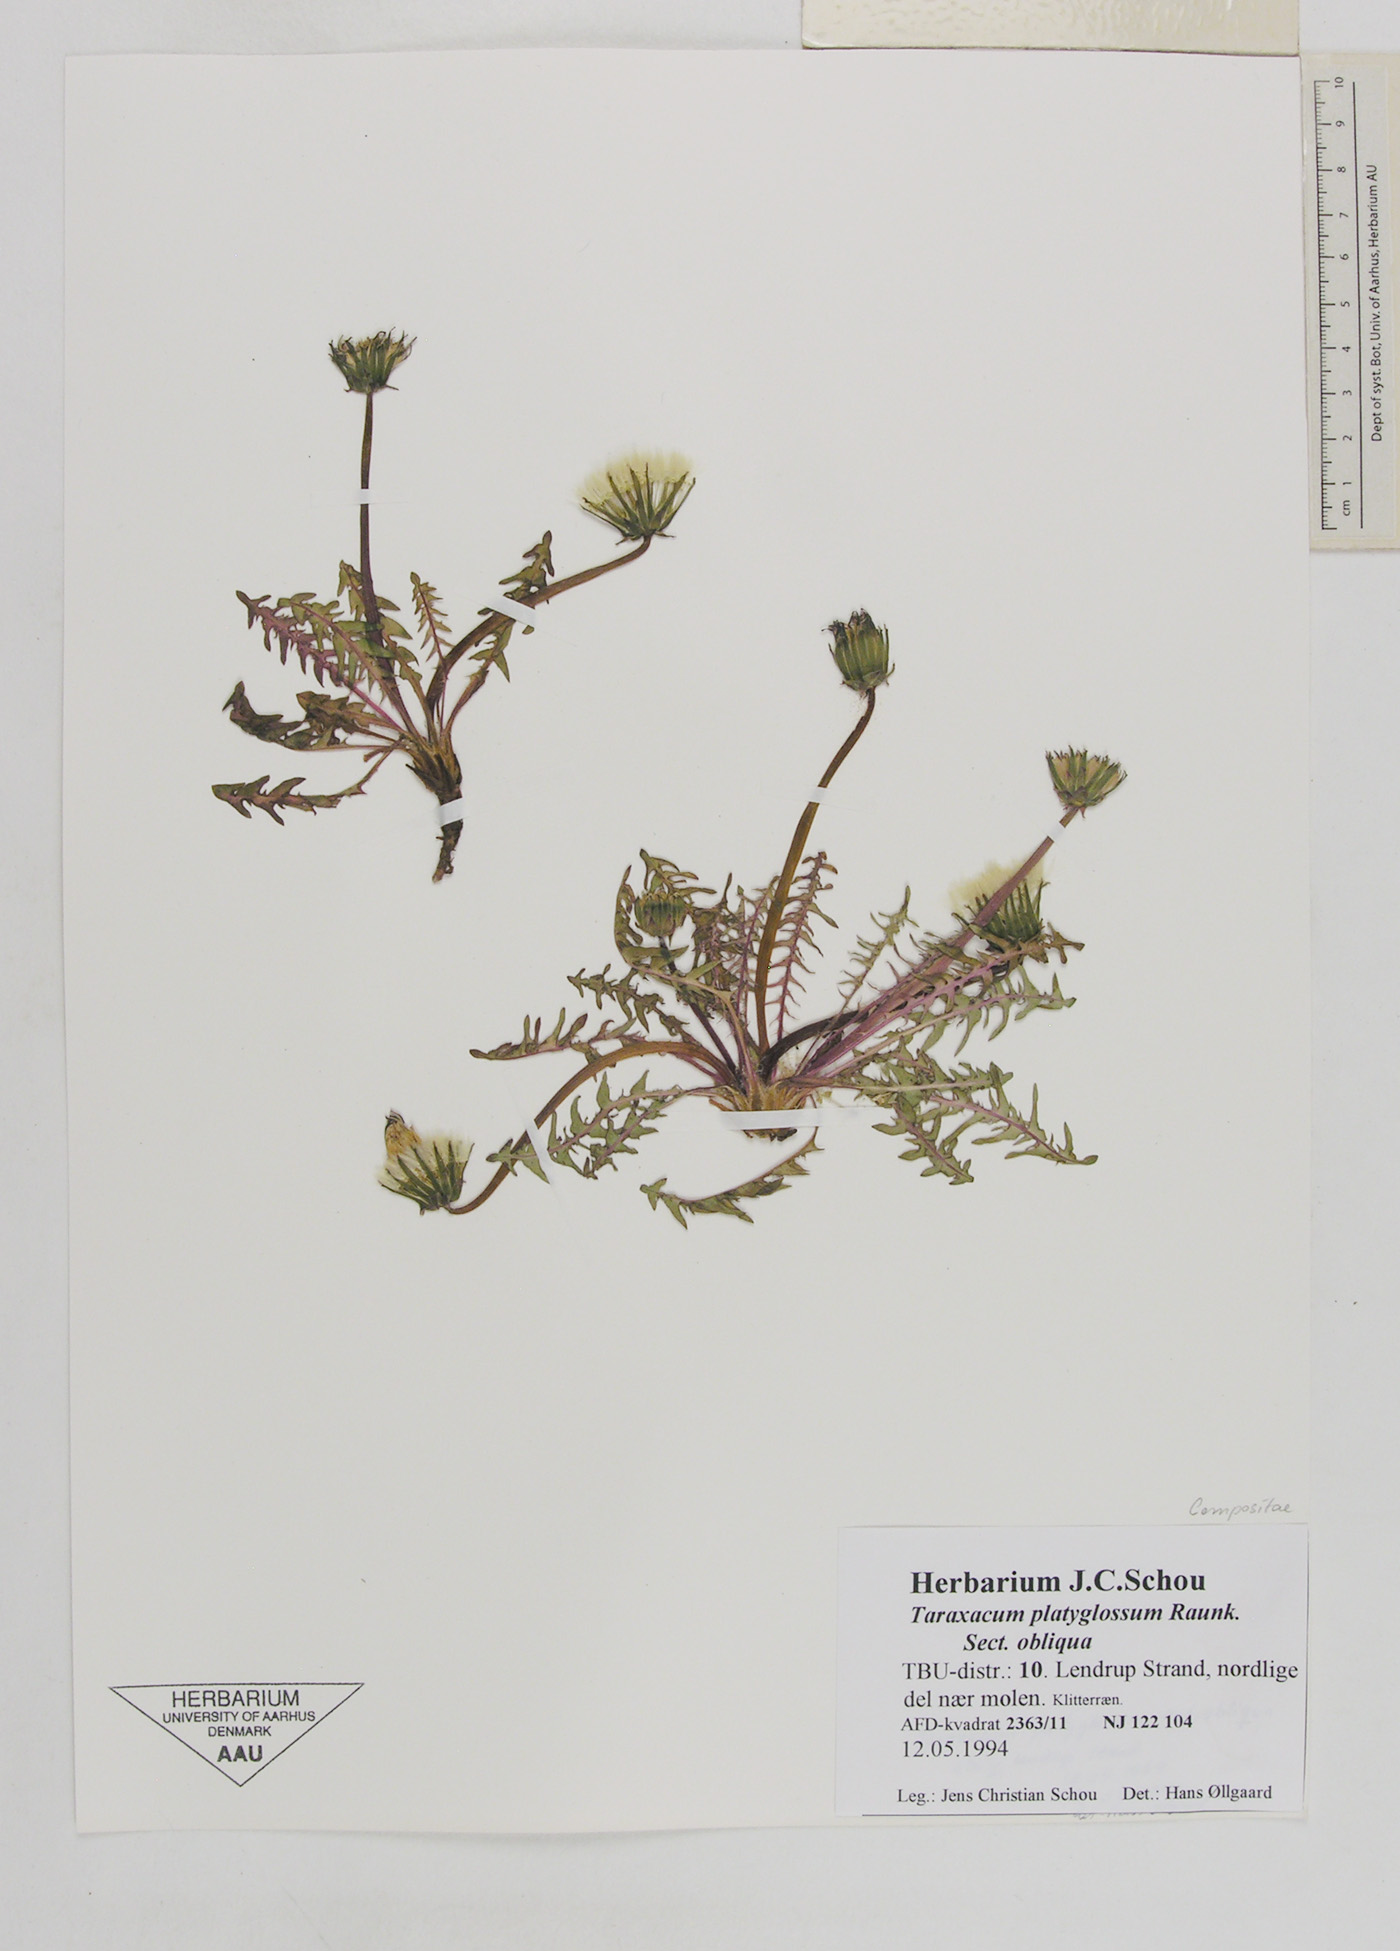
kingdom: Plantae
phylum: Tracheophyta
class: Magnoliopsida
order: Asterales
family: Asteraceae
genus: Taraxacum
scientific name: Taraxacum platyglossum
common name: Tongue-leaved dandelion
